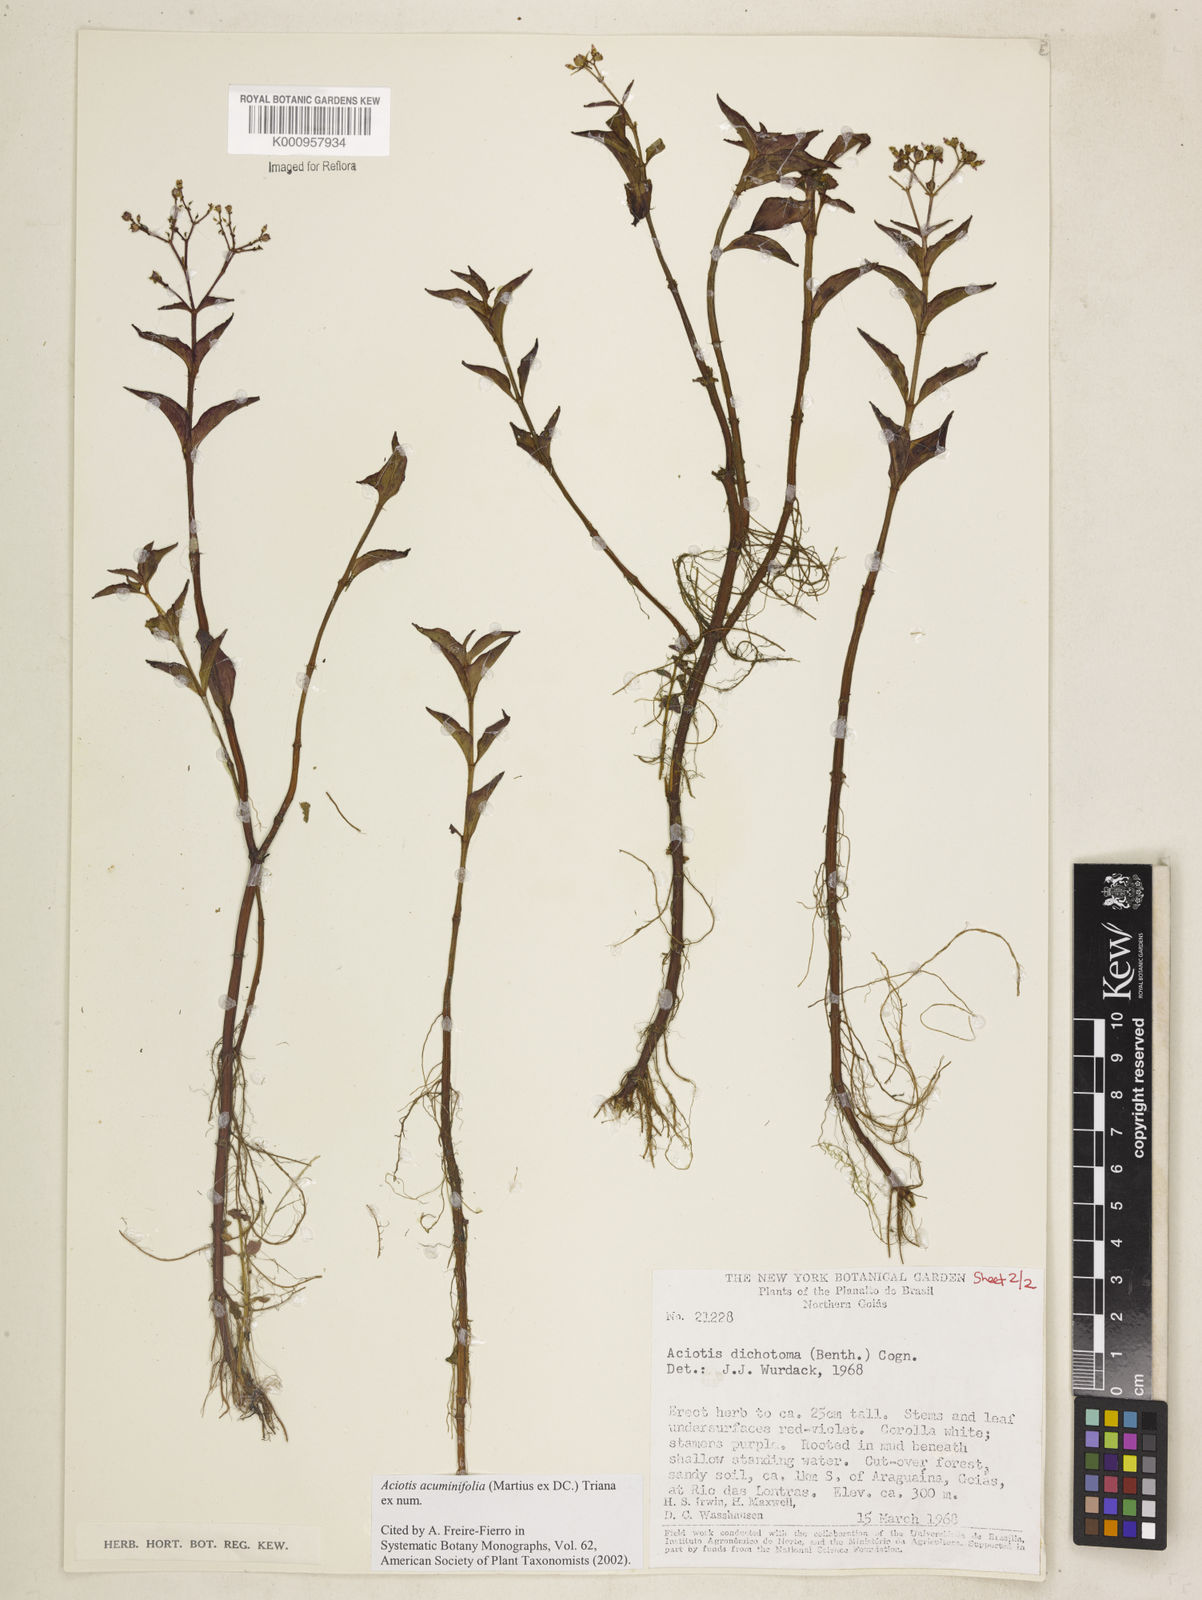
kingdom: Plantae
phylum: Tracheophyta
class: Magnoliopsida
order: Myrtales
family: Melastomataceae
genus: Aciotis
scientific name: Aciotis acuminifolia
